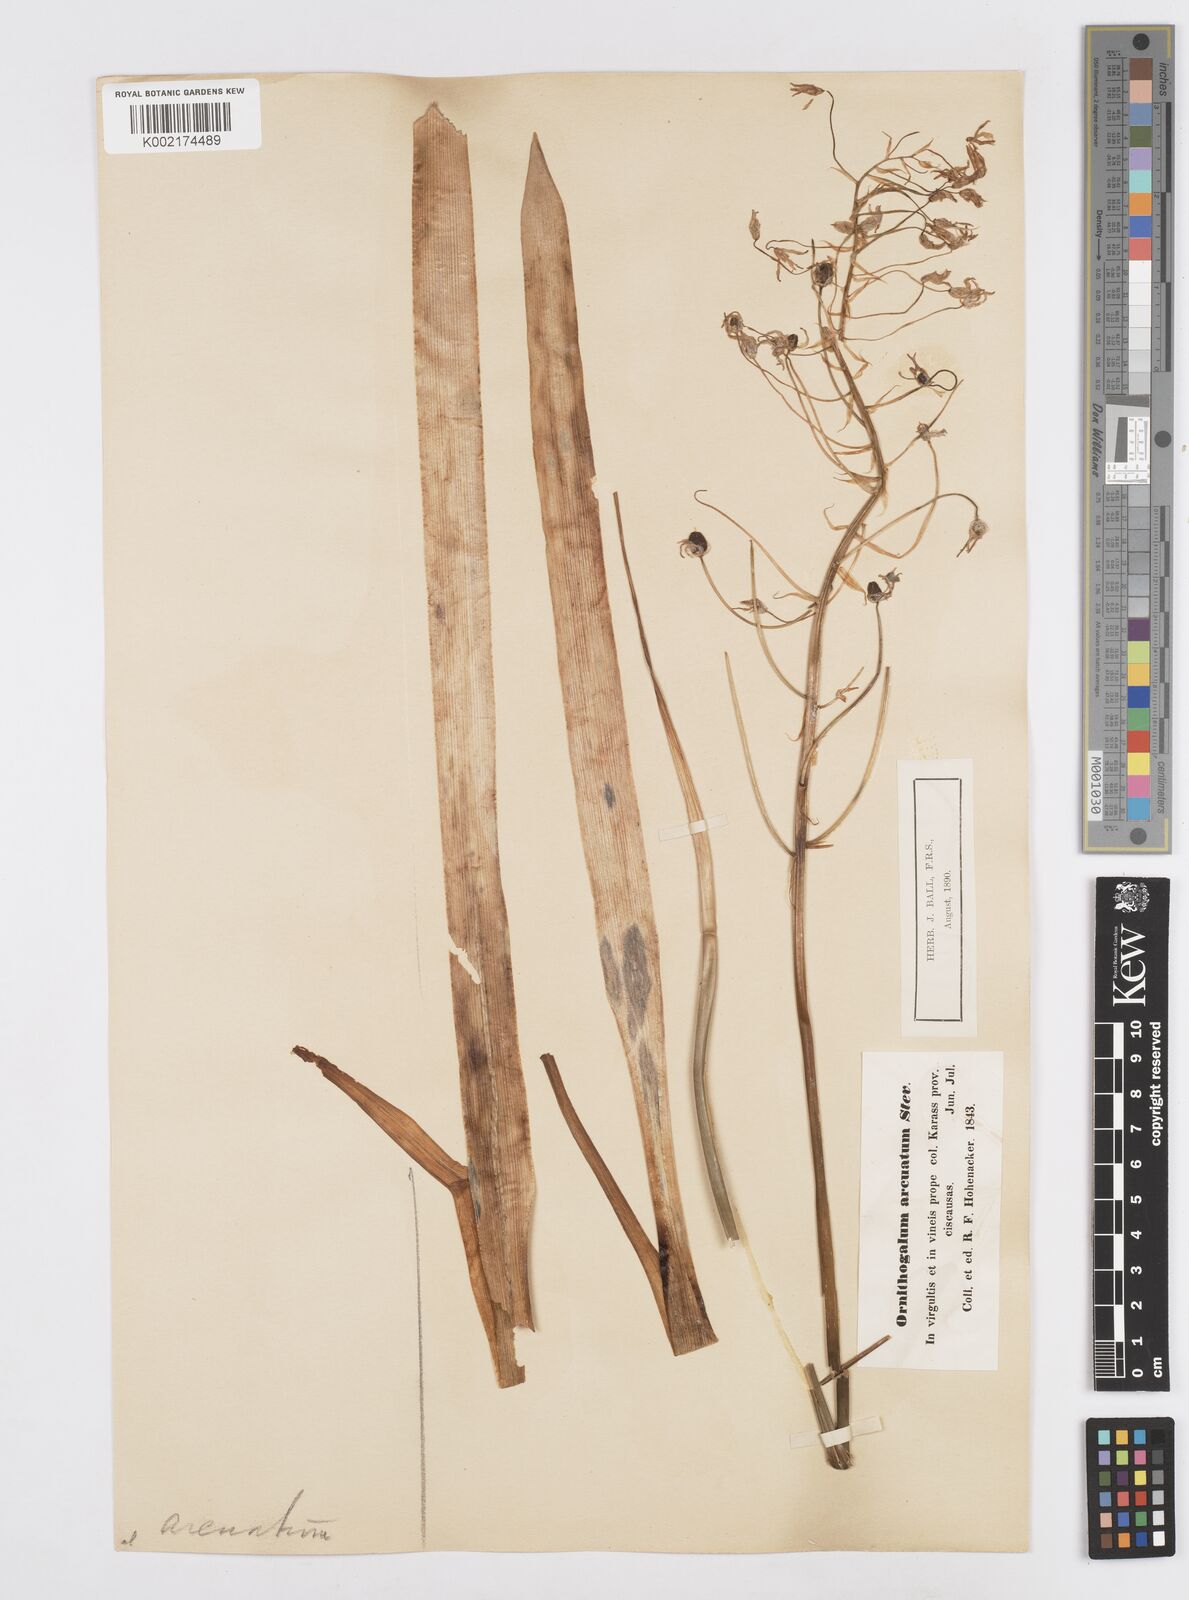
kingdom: Plantae
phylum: Tracheophyta
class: Liliopsida
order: Asparagales
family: Asparagaceae
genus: Ornithogalum
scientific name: Ornithogalum narbonense
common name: Bath-asparagus
